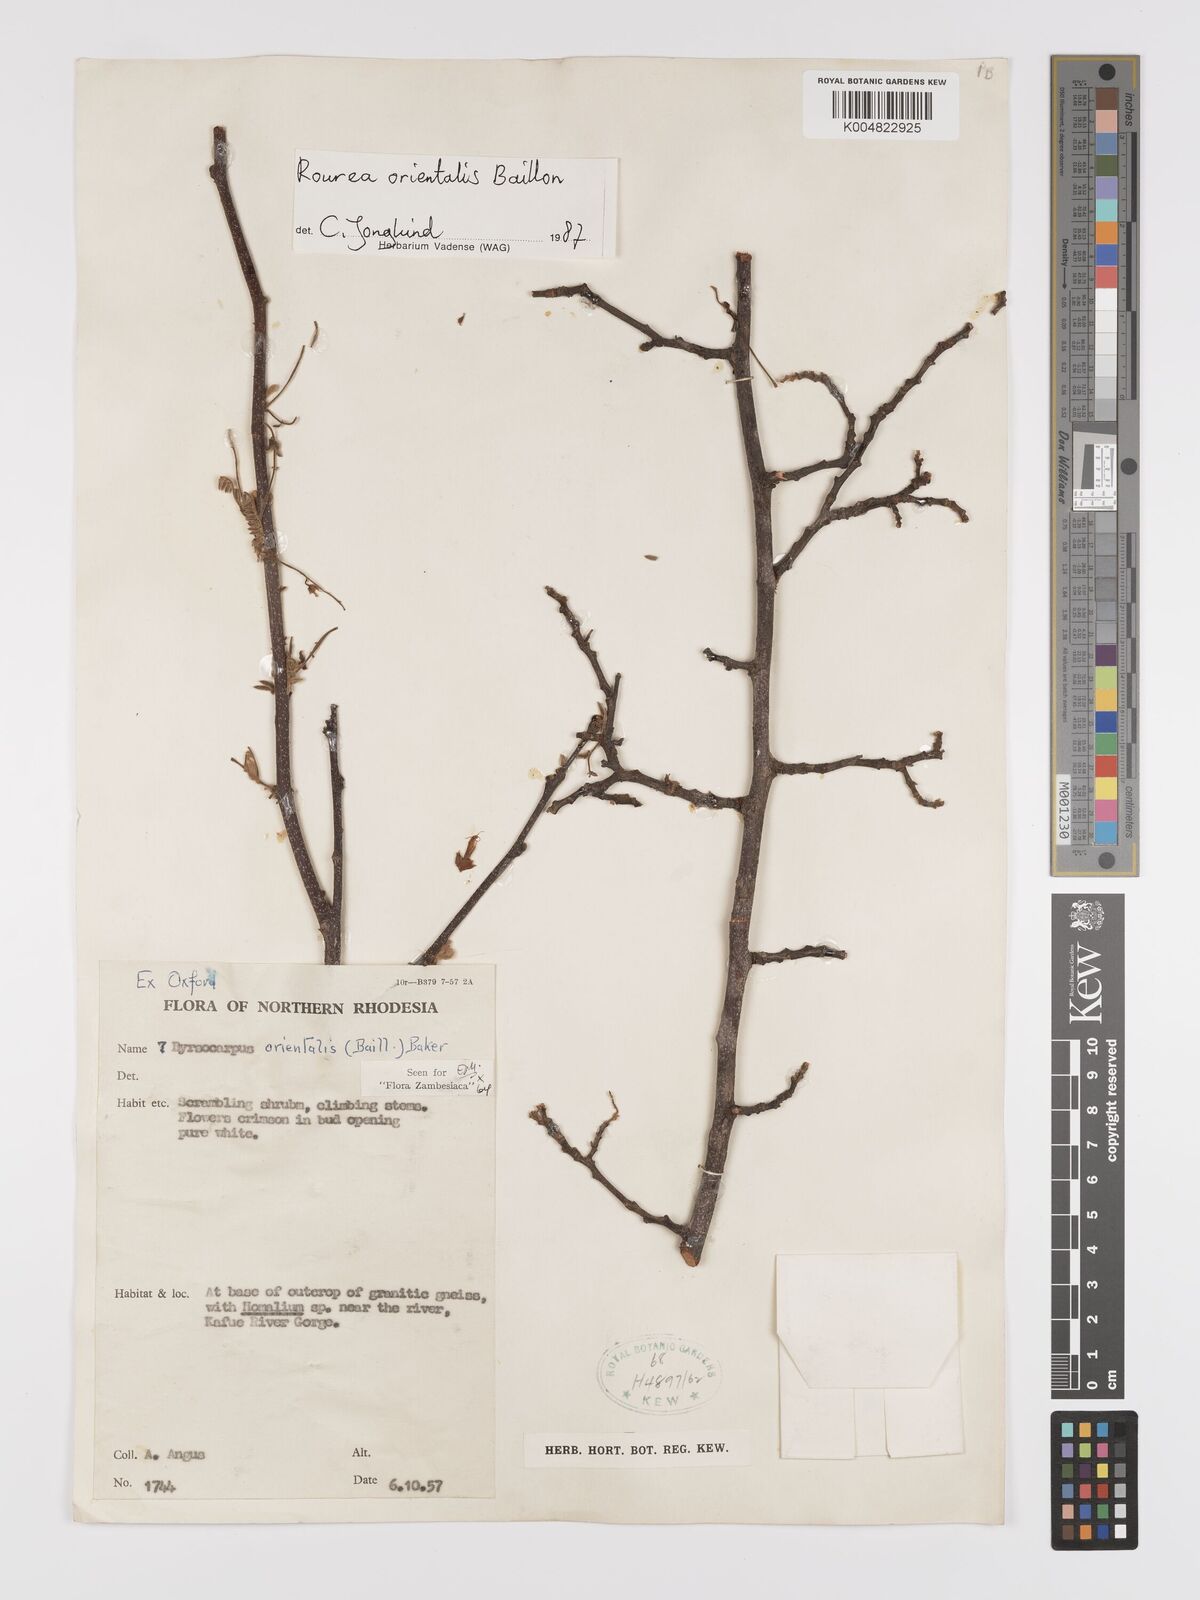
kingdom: Plantae
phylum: Tracheophyta
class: Magnoliopsida
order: Oxalidales
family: Connaraceae
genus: Rourea
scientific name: Rourea orientalis
